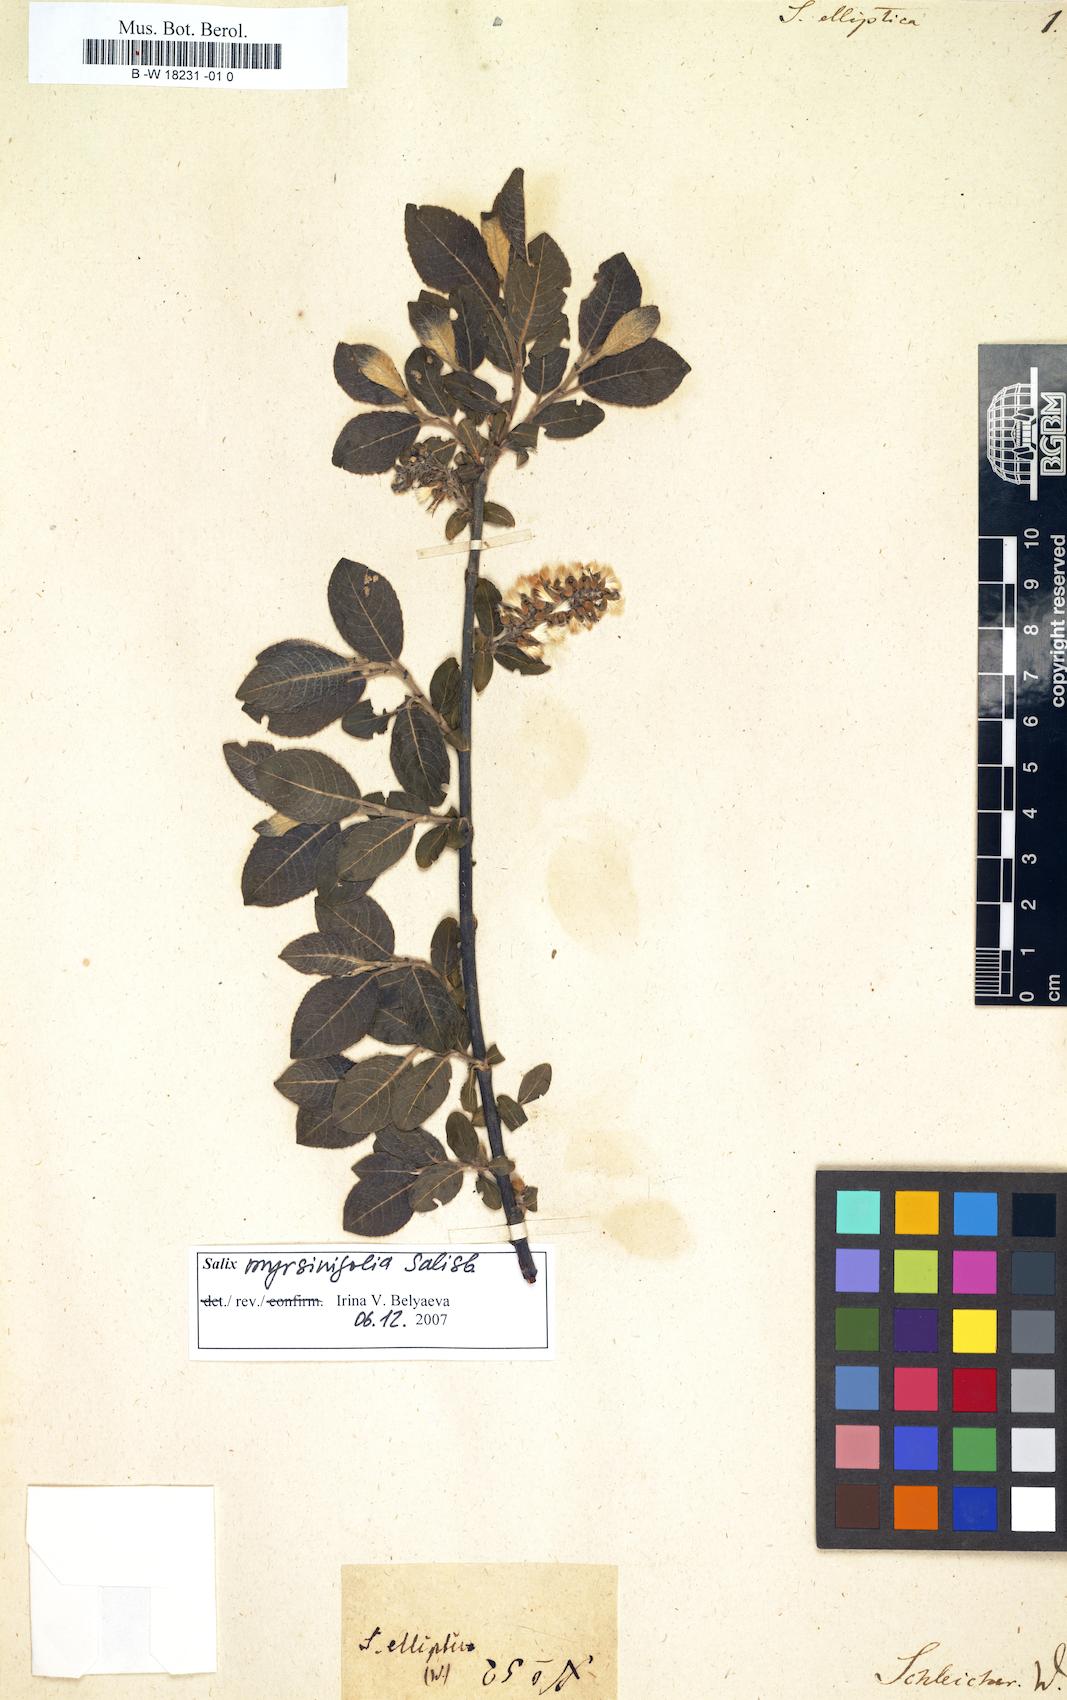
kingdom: Plantae
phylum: Tracheophyta
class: Magnoliopsida
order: Malpighiales
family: Salicaceae
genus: Salix
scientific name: Salix elliptica
